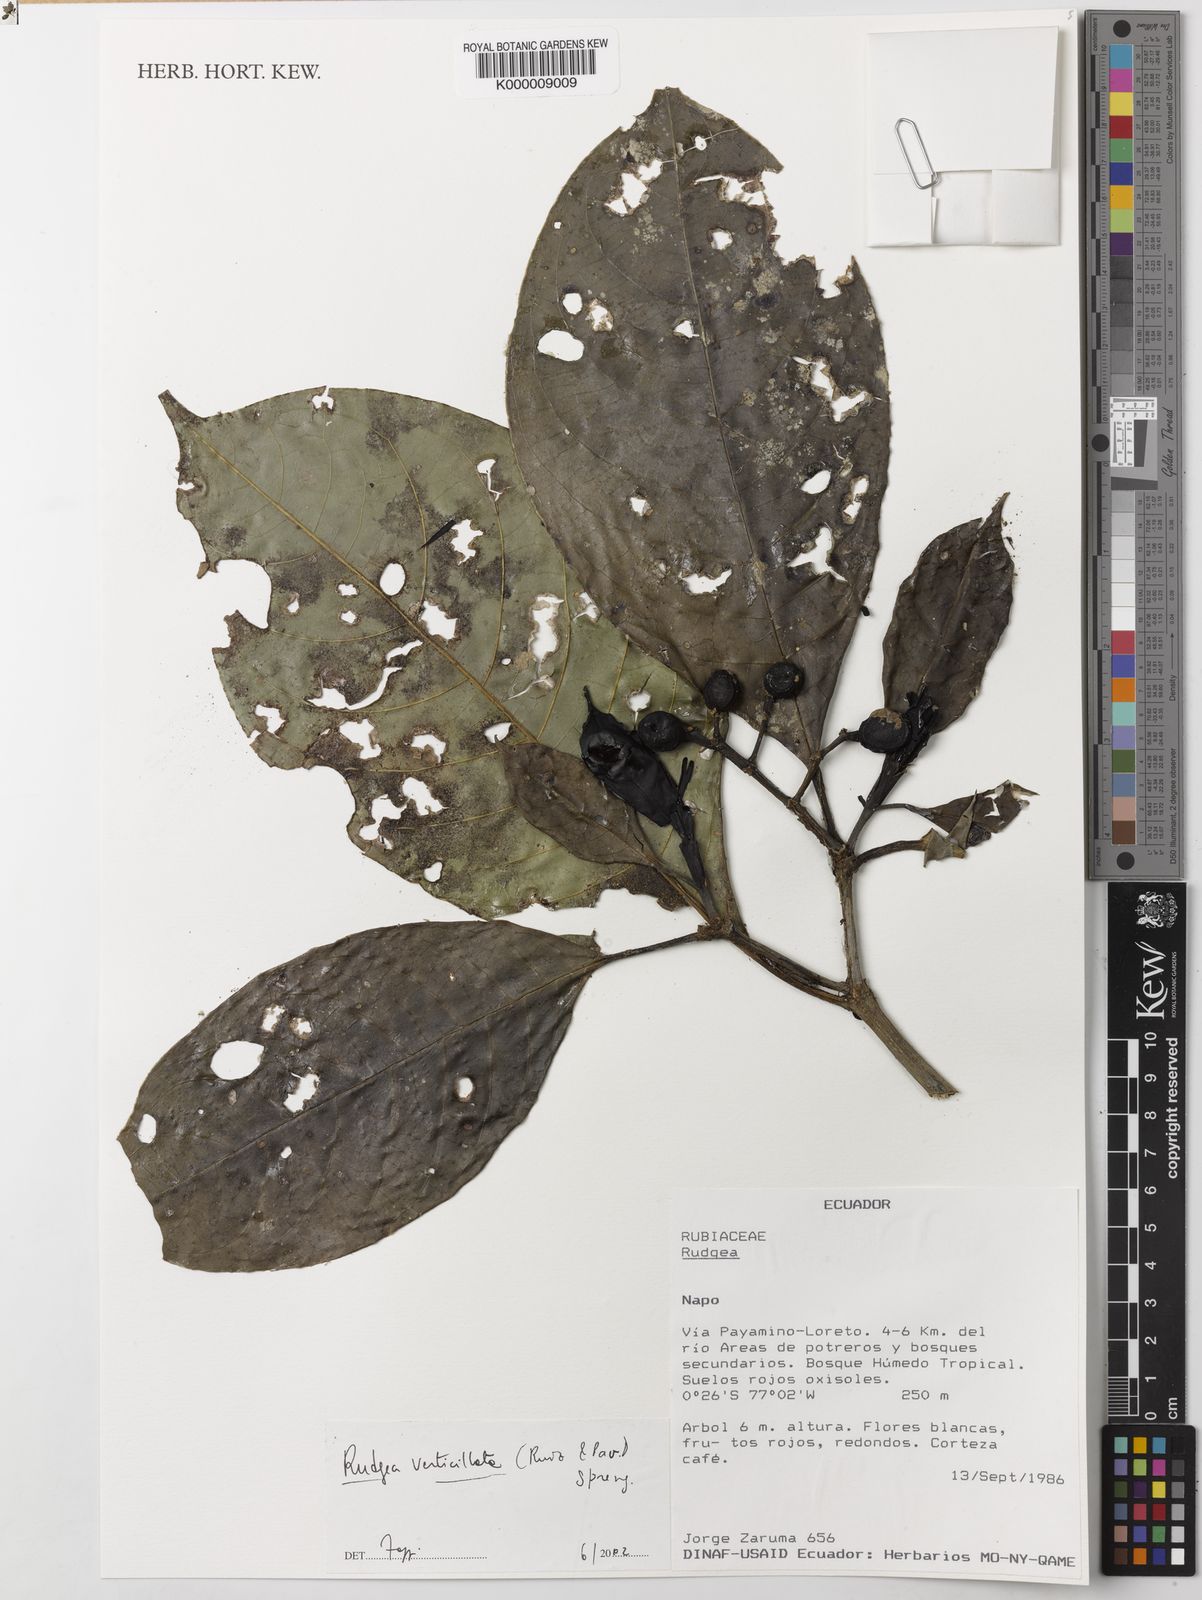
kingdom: Plantae
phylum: Tracheophyta
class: Magnoliopsida
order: Gentianales
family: Rubiaceae
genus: Rudgea
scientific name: Rudgea verticillata
